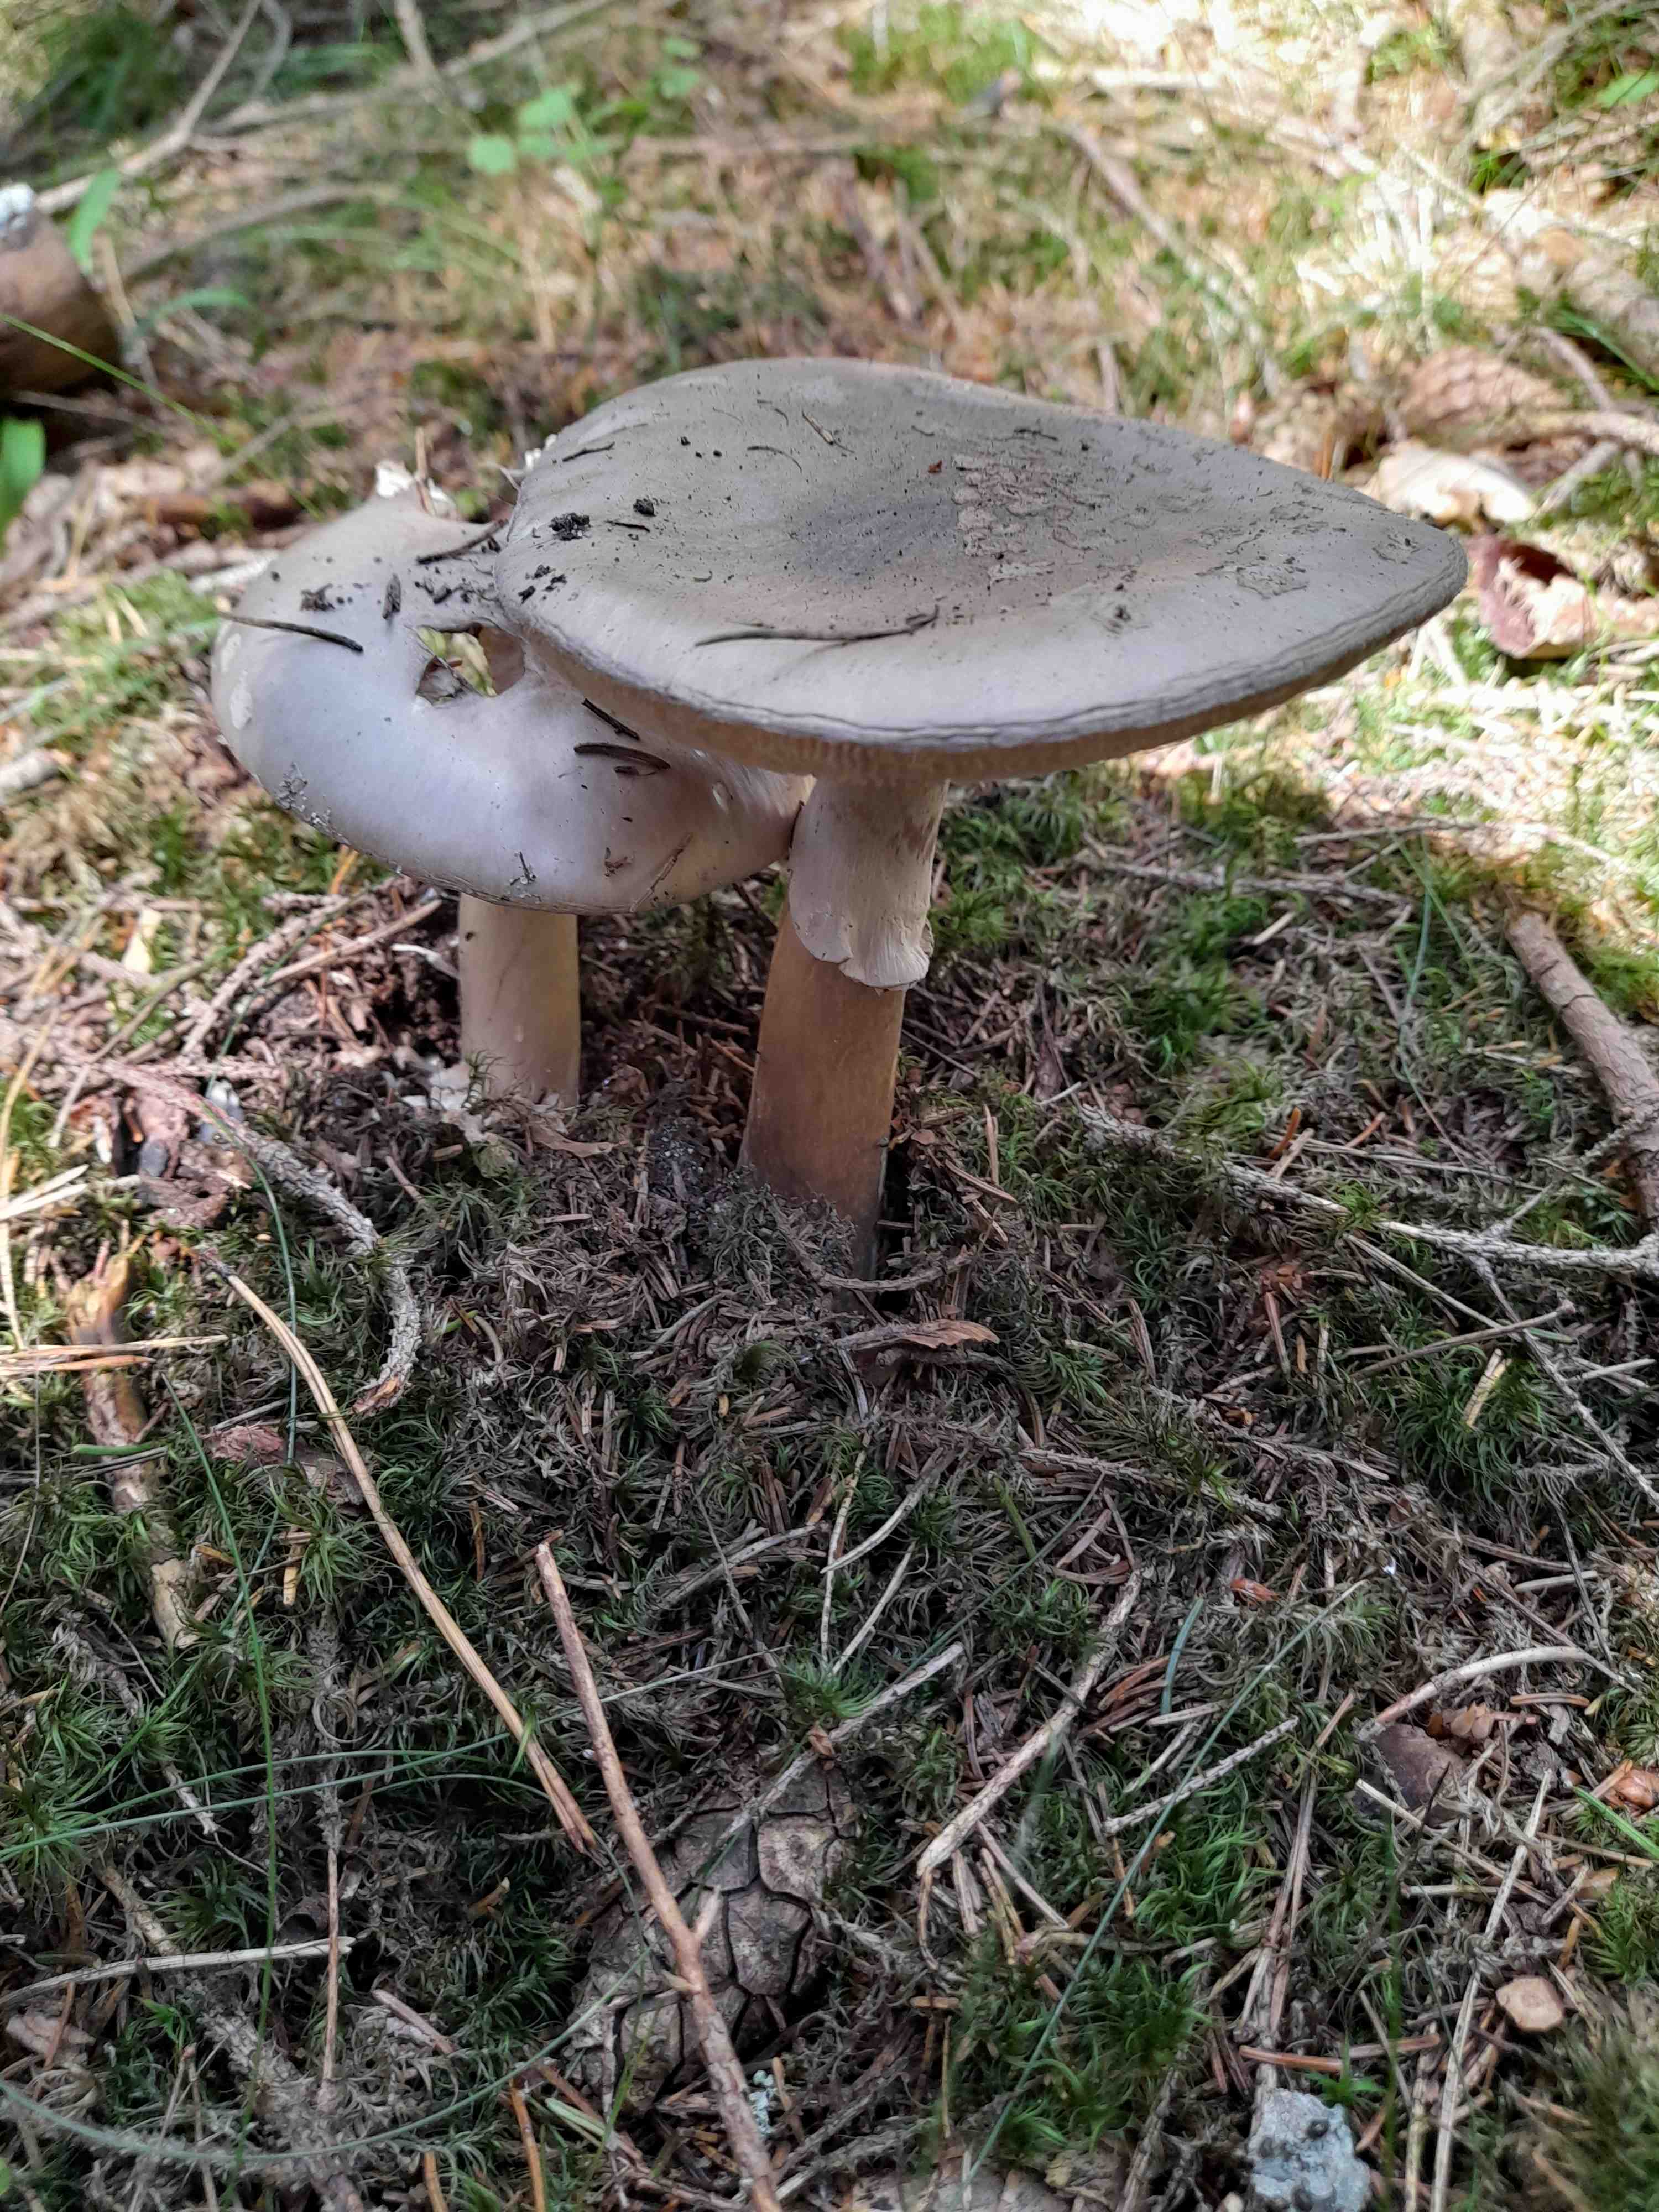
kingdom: Fungi
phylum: Basidiomycota
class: Agaricomycetes
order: Agaricales
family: Amanitaceae
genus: Amanita
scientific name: Amanita
